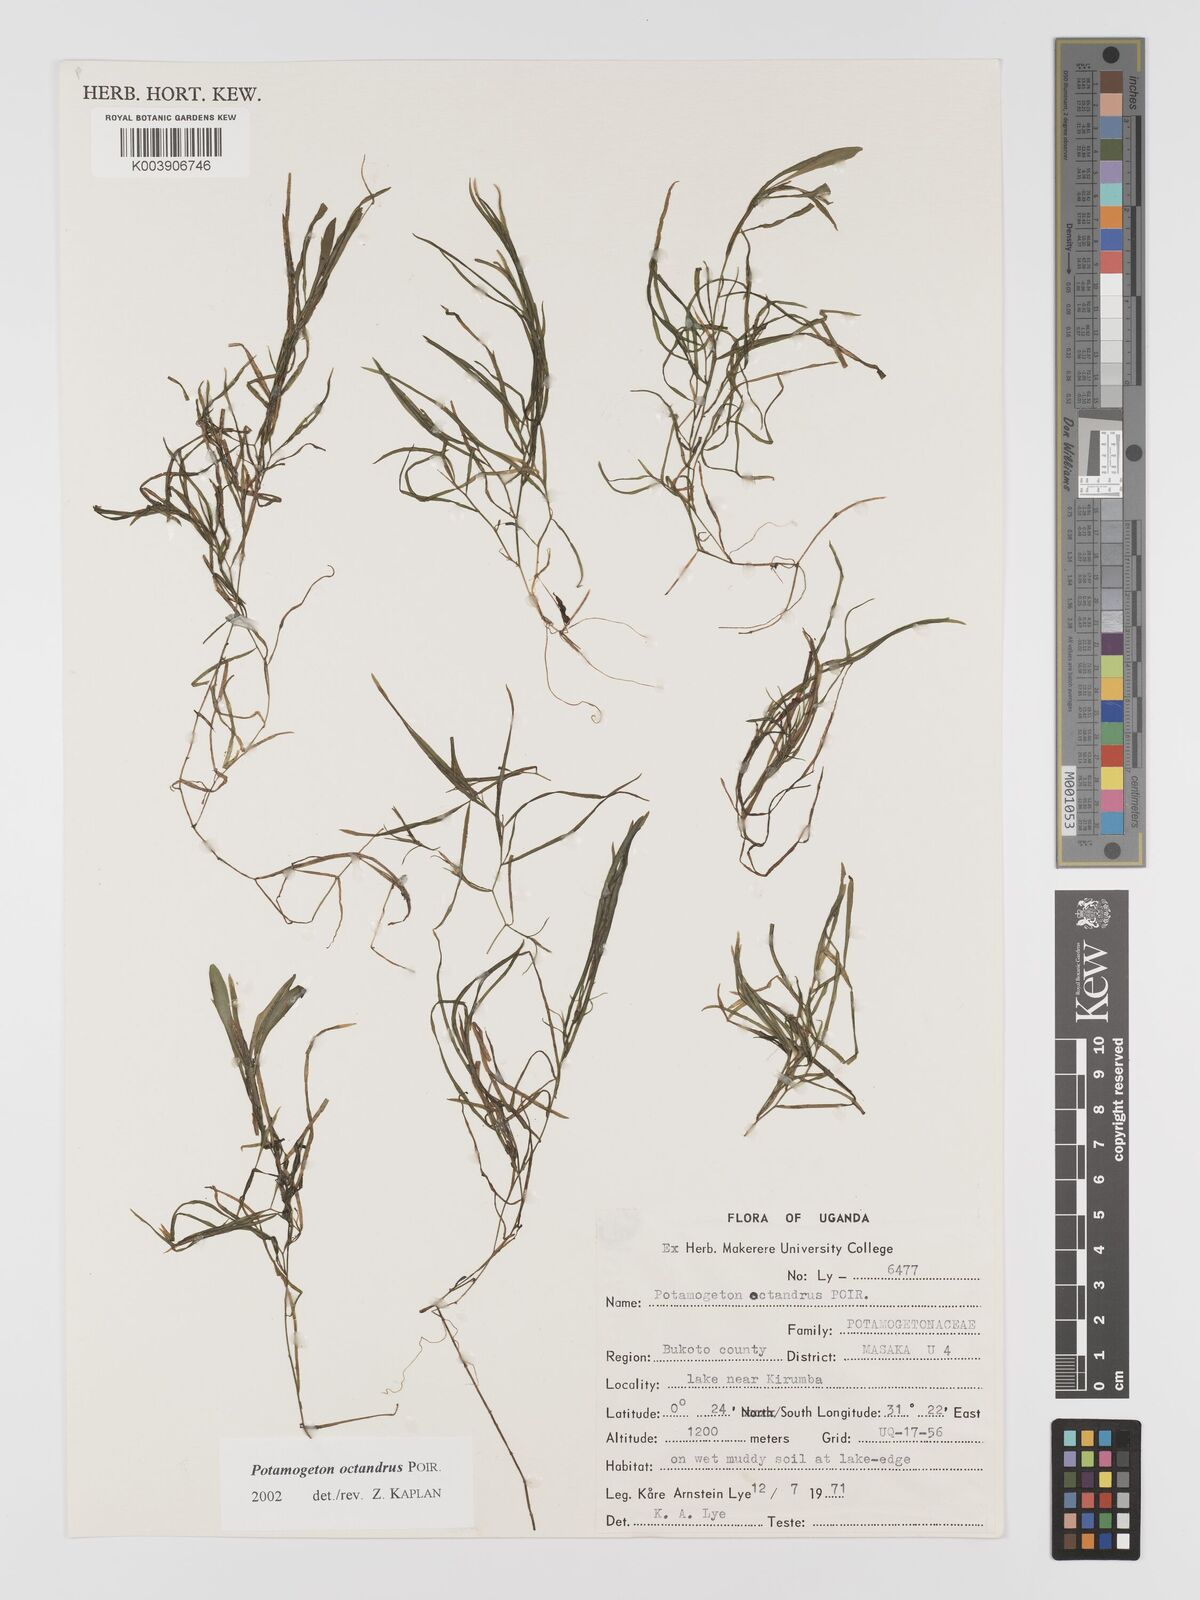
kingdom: Plantae
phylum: Tracheophyta
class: Liliopsida
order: Alismatales
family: Potamogetonaceae
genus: Potamogeton
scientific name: Potamogeton octandrus
